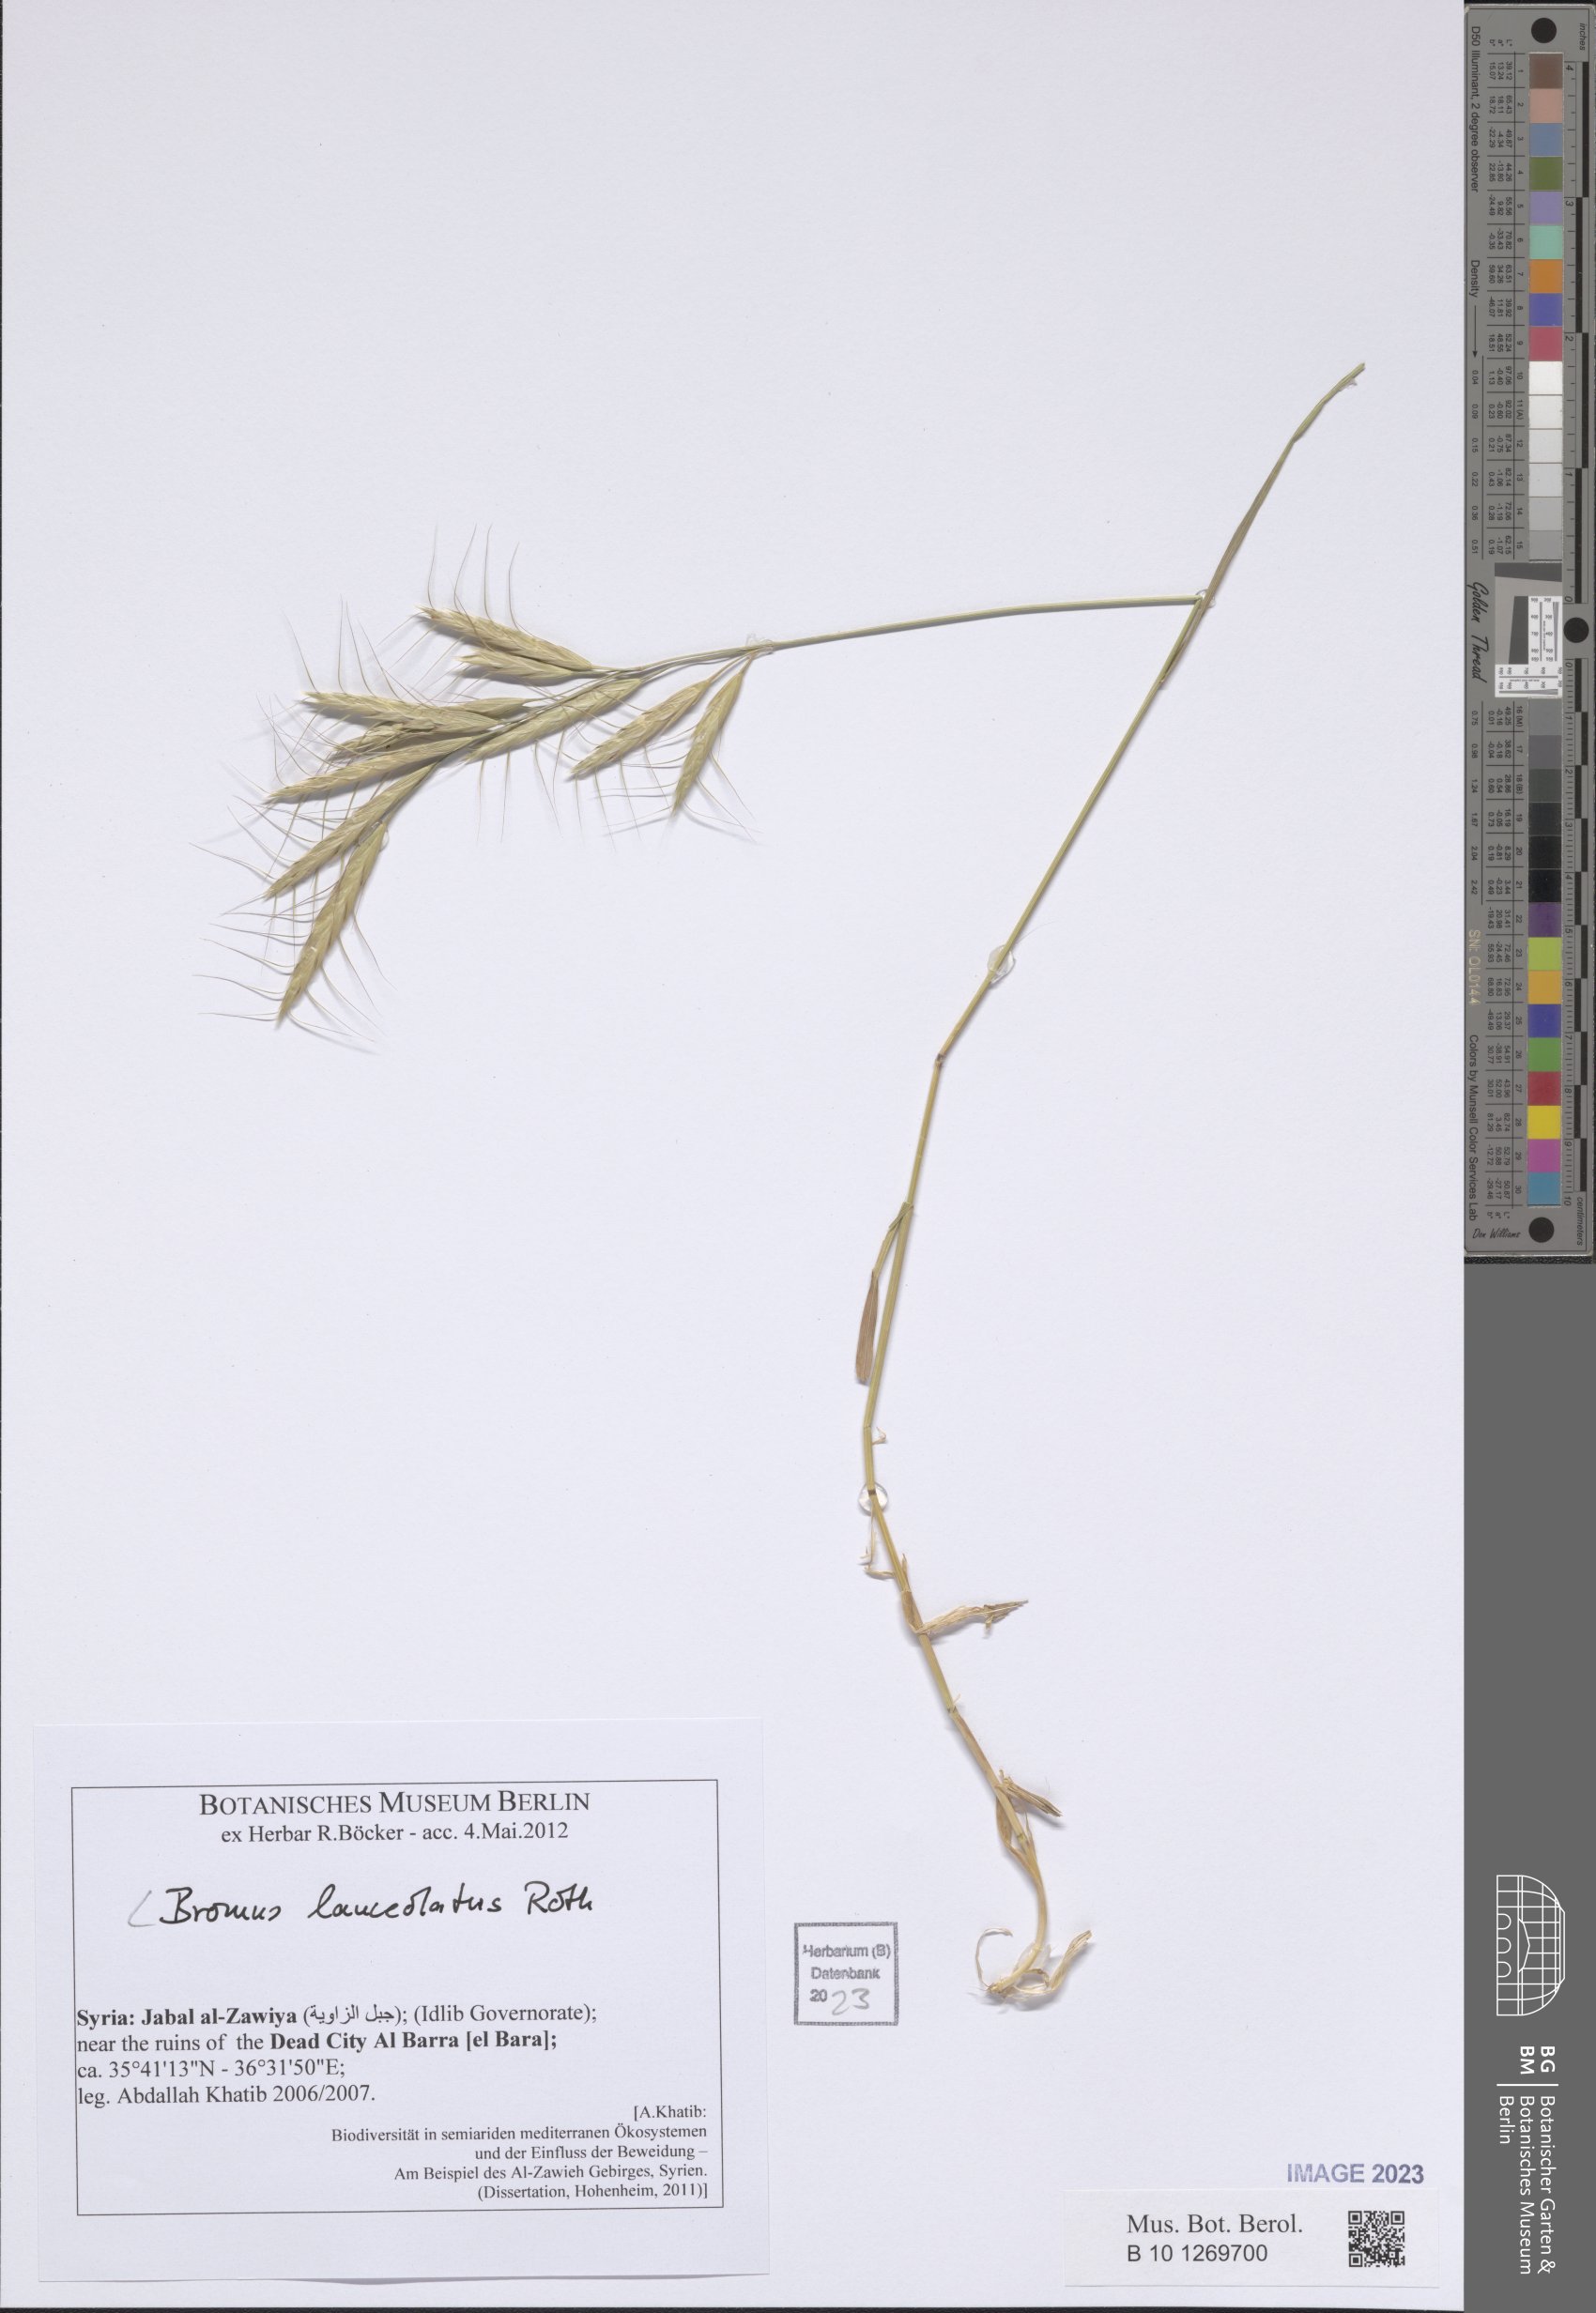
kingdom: Plantae
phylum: Tracheophyta
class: Liliopsida
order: Poales
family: Poaceae
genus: Bromus
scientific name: Bromus lanceolatus
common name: Mediterranean brome
